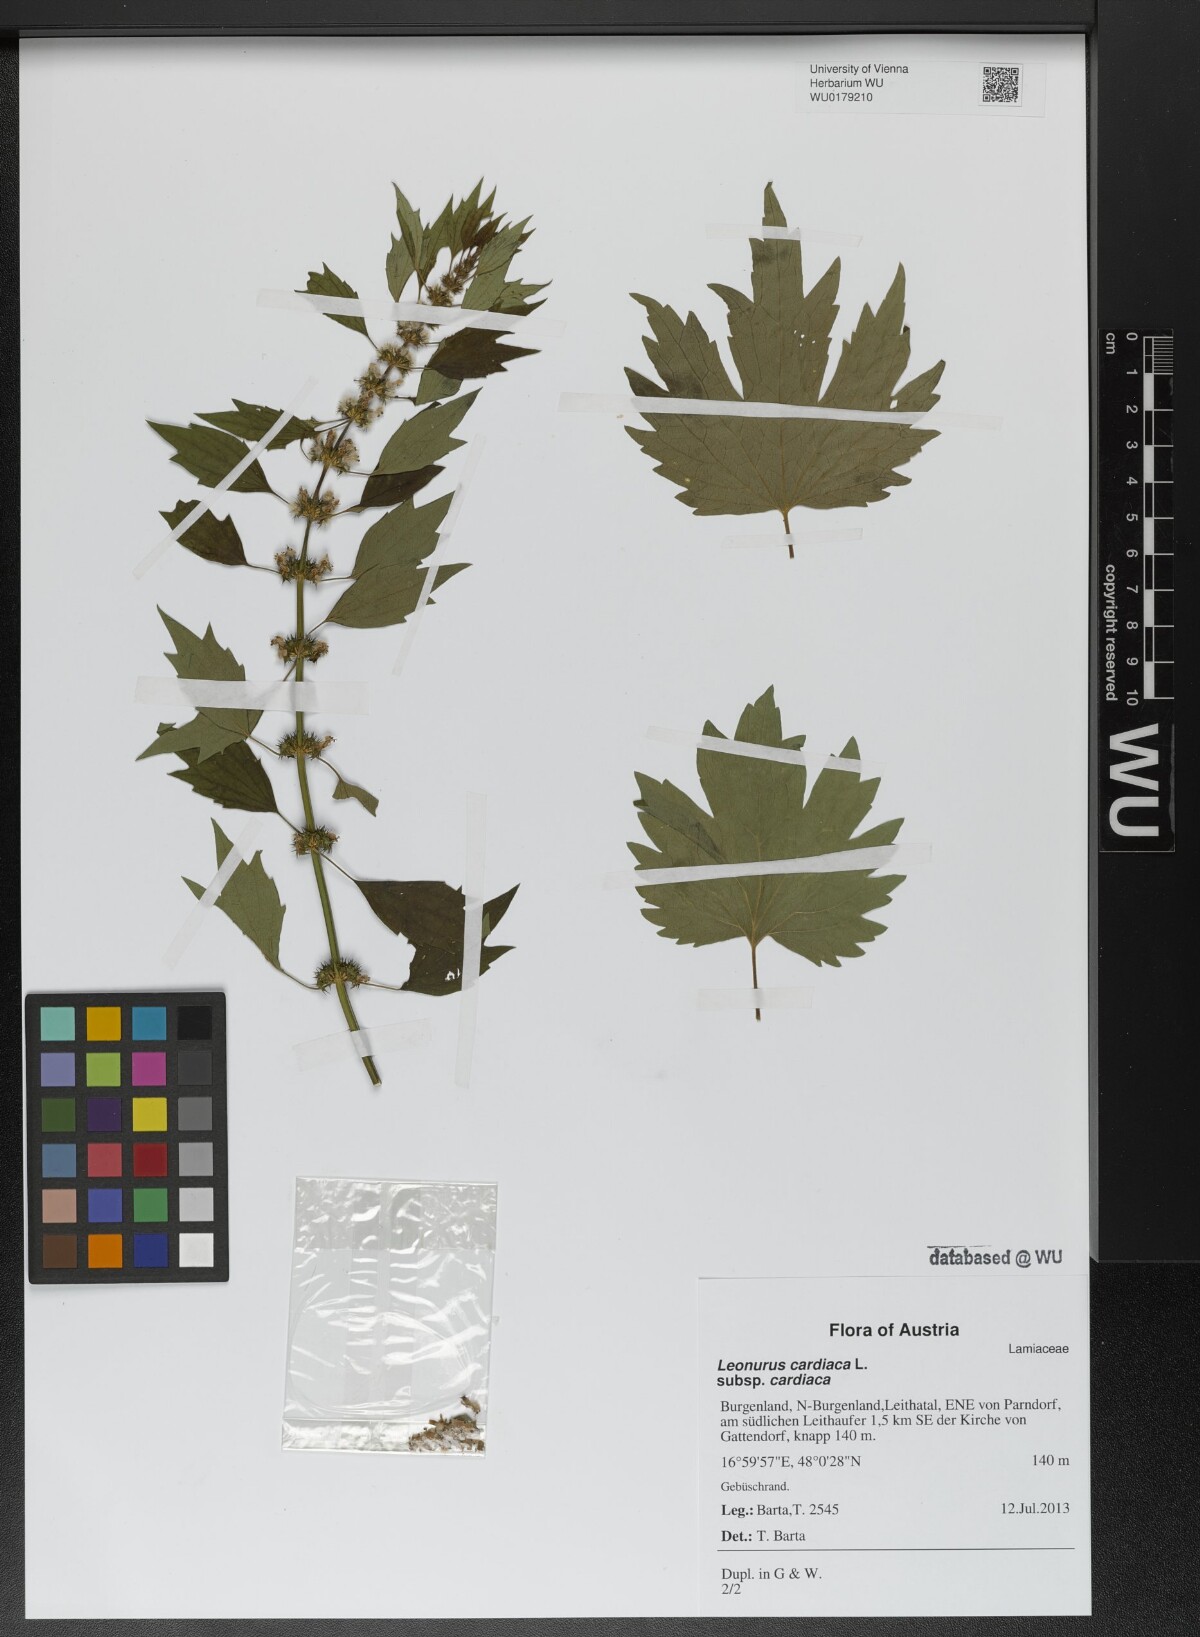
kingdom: Plantae
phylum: Tracheophyta
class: Magnoliopsida
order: Lamiales
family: Lamiaceae
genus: Leonurus
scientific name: Leonurus cardiaca
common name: Motherwort
